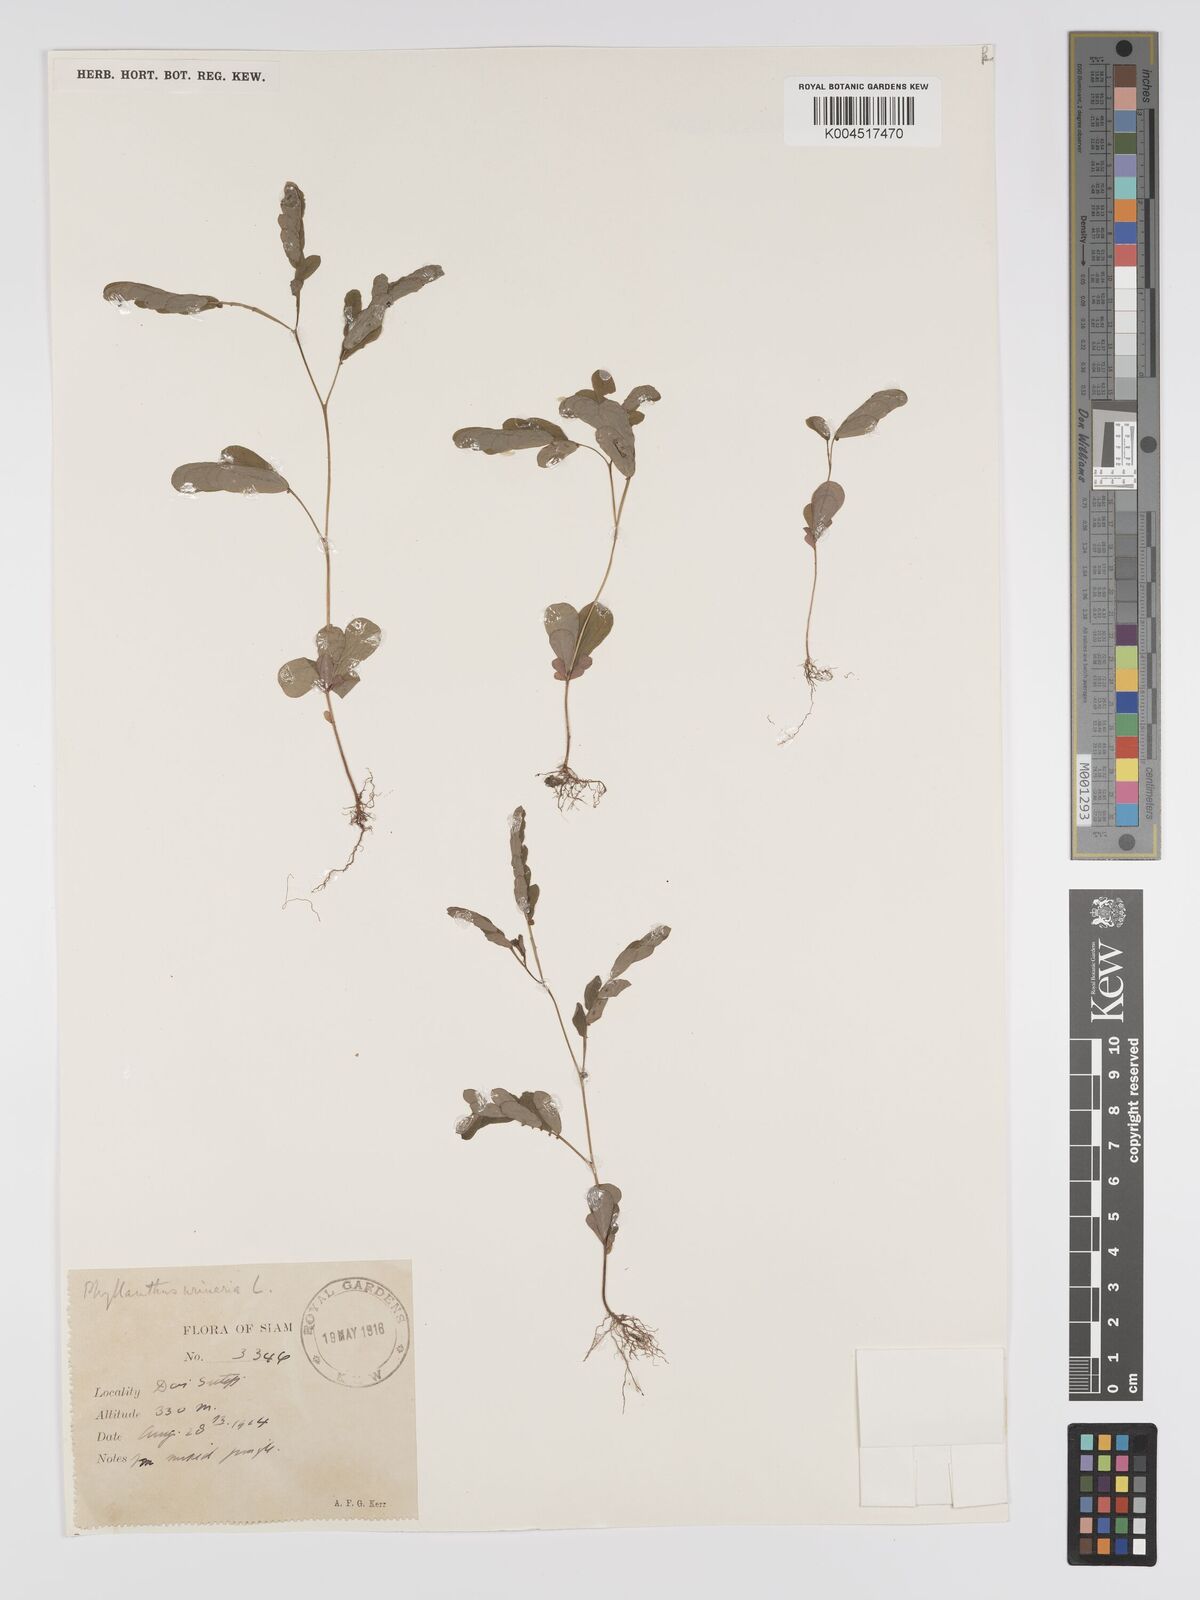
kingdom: Plantae
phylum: Tracheophyta
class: Magnoliopsida
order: Malpighiales
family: Phyllanthaceae
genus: Phyllanthus
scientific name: Phyllanthus urinaria
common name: Chamber bitter
